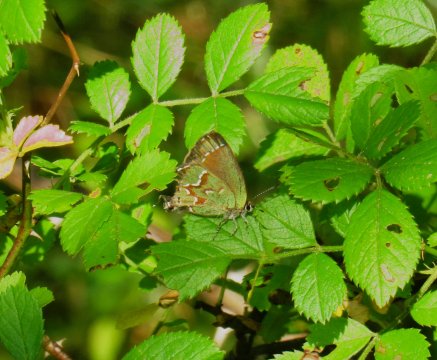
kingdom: Animalia
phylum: Arthropoda
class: Insecta
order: Lepidoptera
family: Lycaenidae
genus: Mitoura
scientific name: Mitoura gryneus
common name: Juniper Hairstreak
